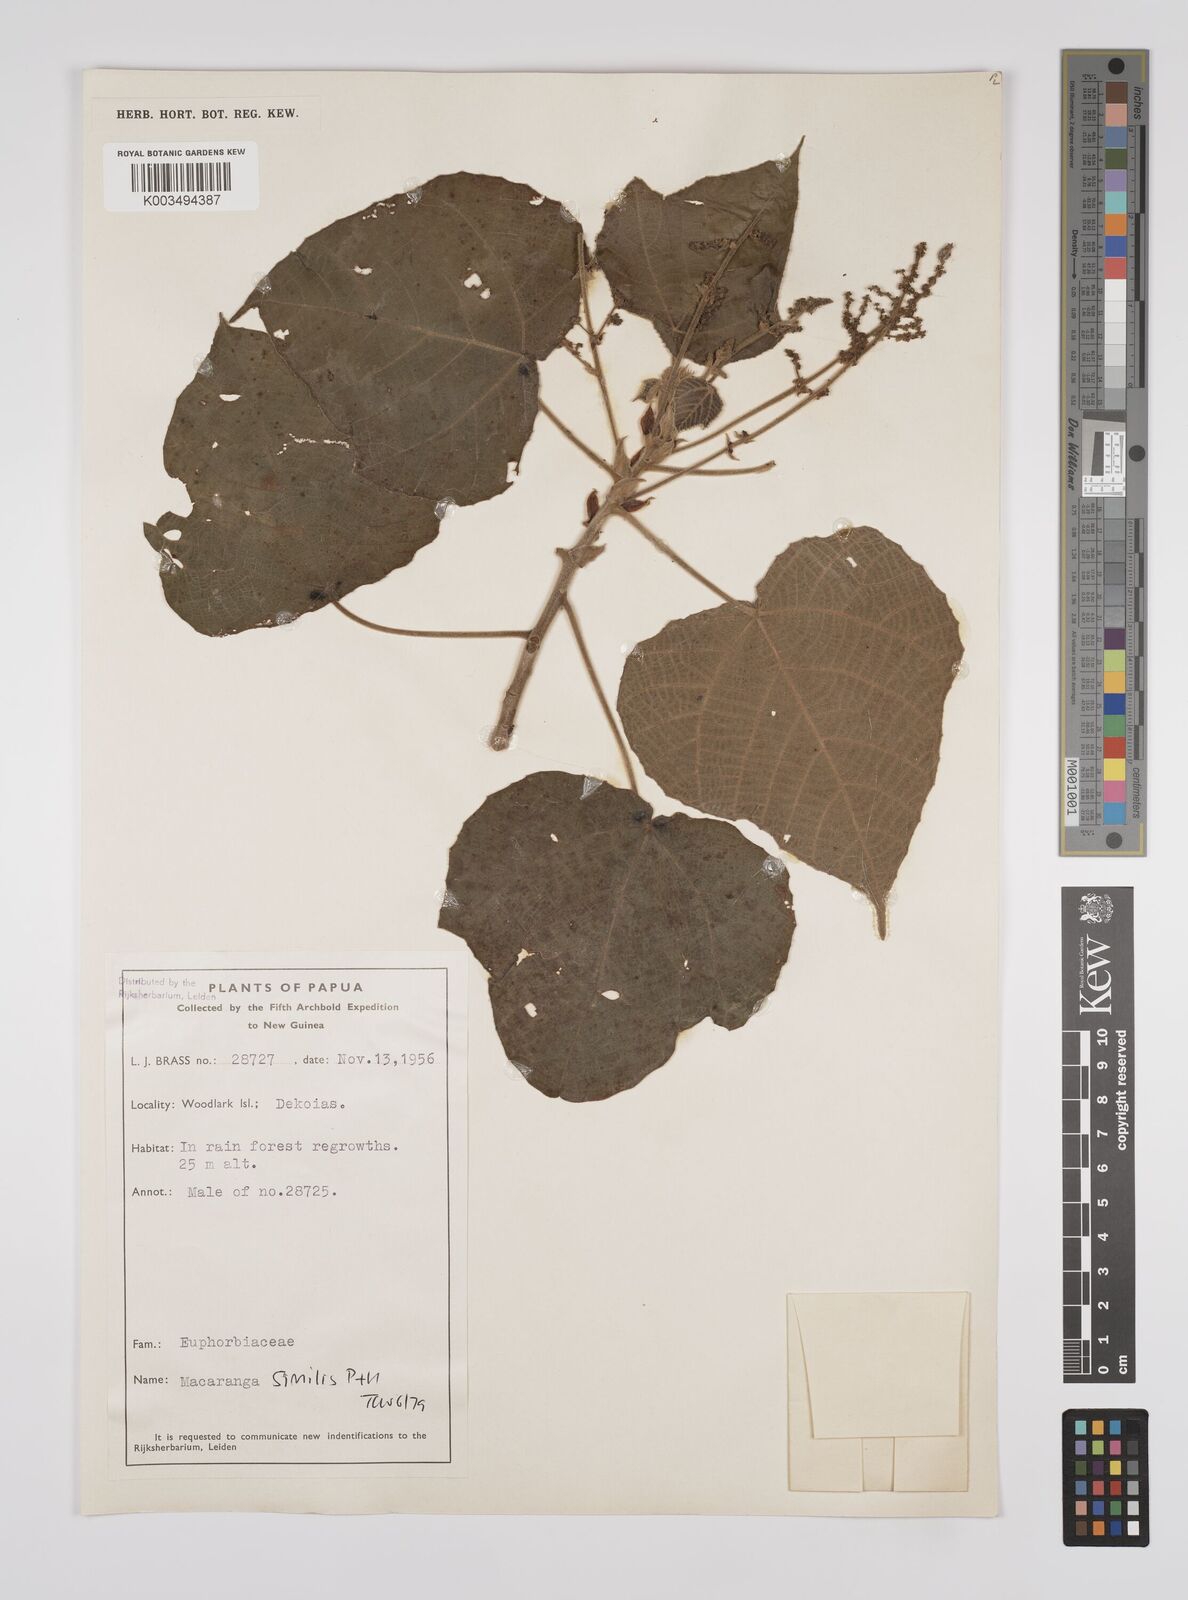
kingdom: Plantae
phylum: Tracheophyta
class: Magnoliopsida
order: Malpighiales
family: Euphorbiaceae
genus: Macaranga
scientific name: Macaranga similis
